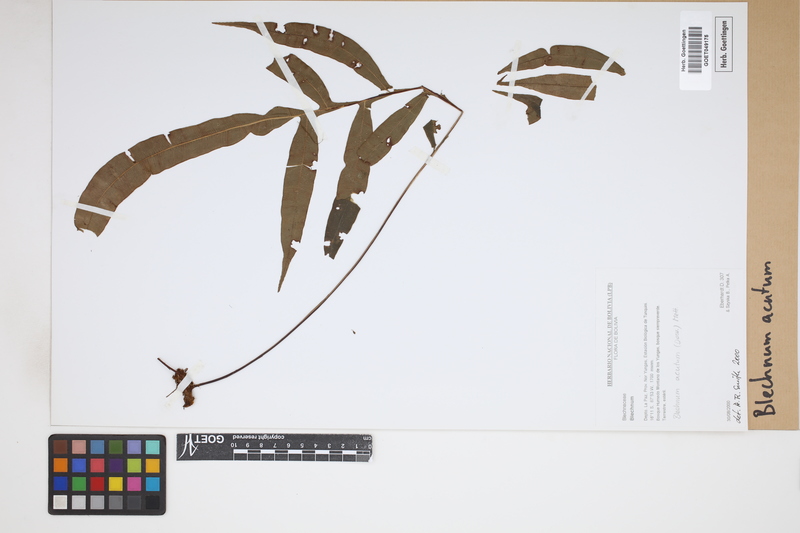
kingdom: Plantae
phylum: Tracheophyta
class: Polypodiopsida
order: Polypodiales
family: Blechnaceae
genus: Lomaridium
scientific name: Lomaridium acutum
